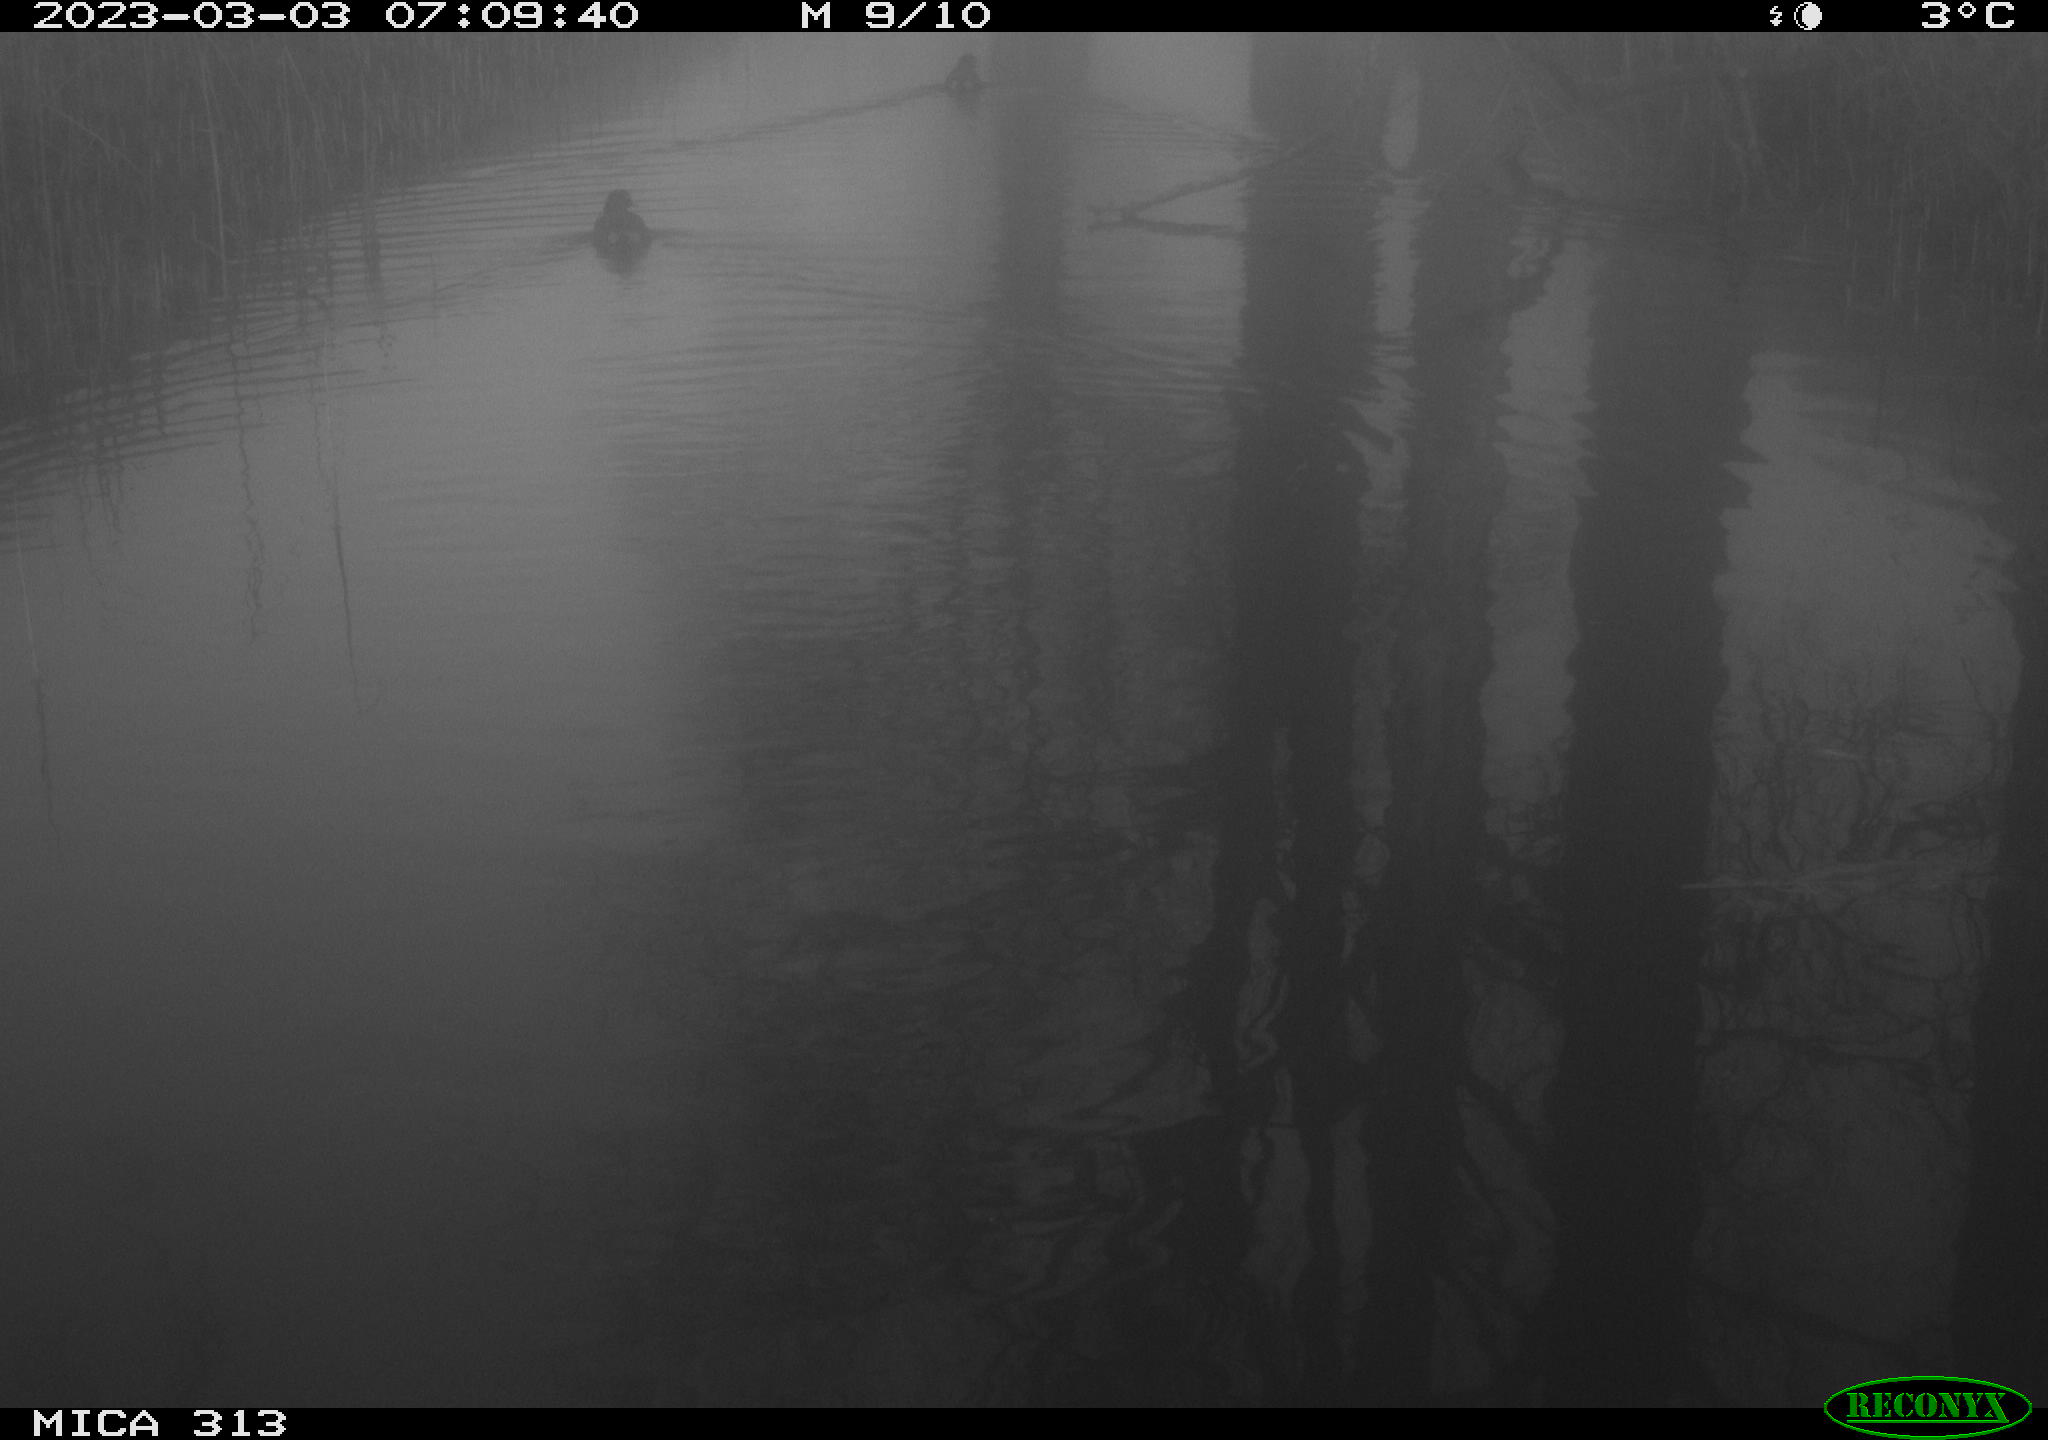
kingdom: Animalia
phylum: Chordata
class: Aves
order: Gruiformes
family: Rallidae
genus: Gallinula
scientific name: Gallinula chloropus
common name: Common moorhen
